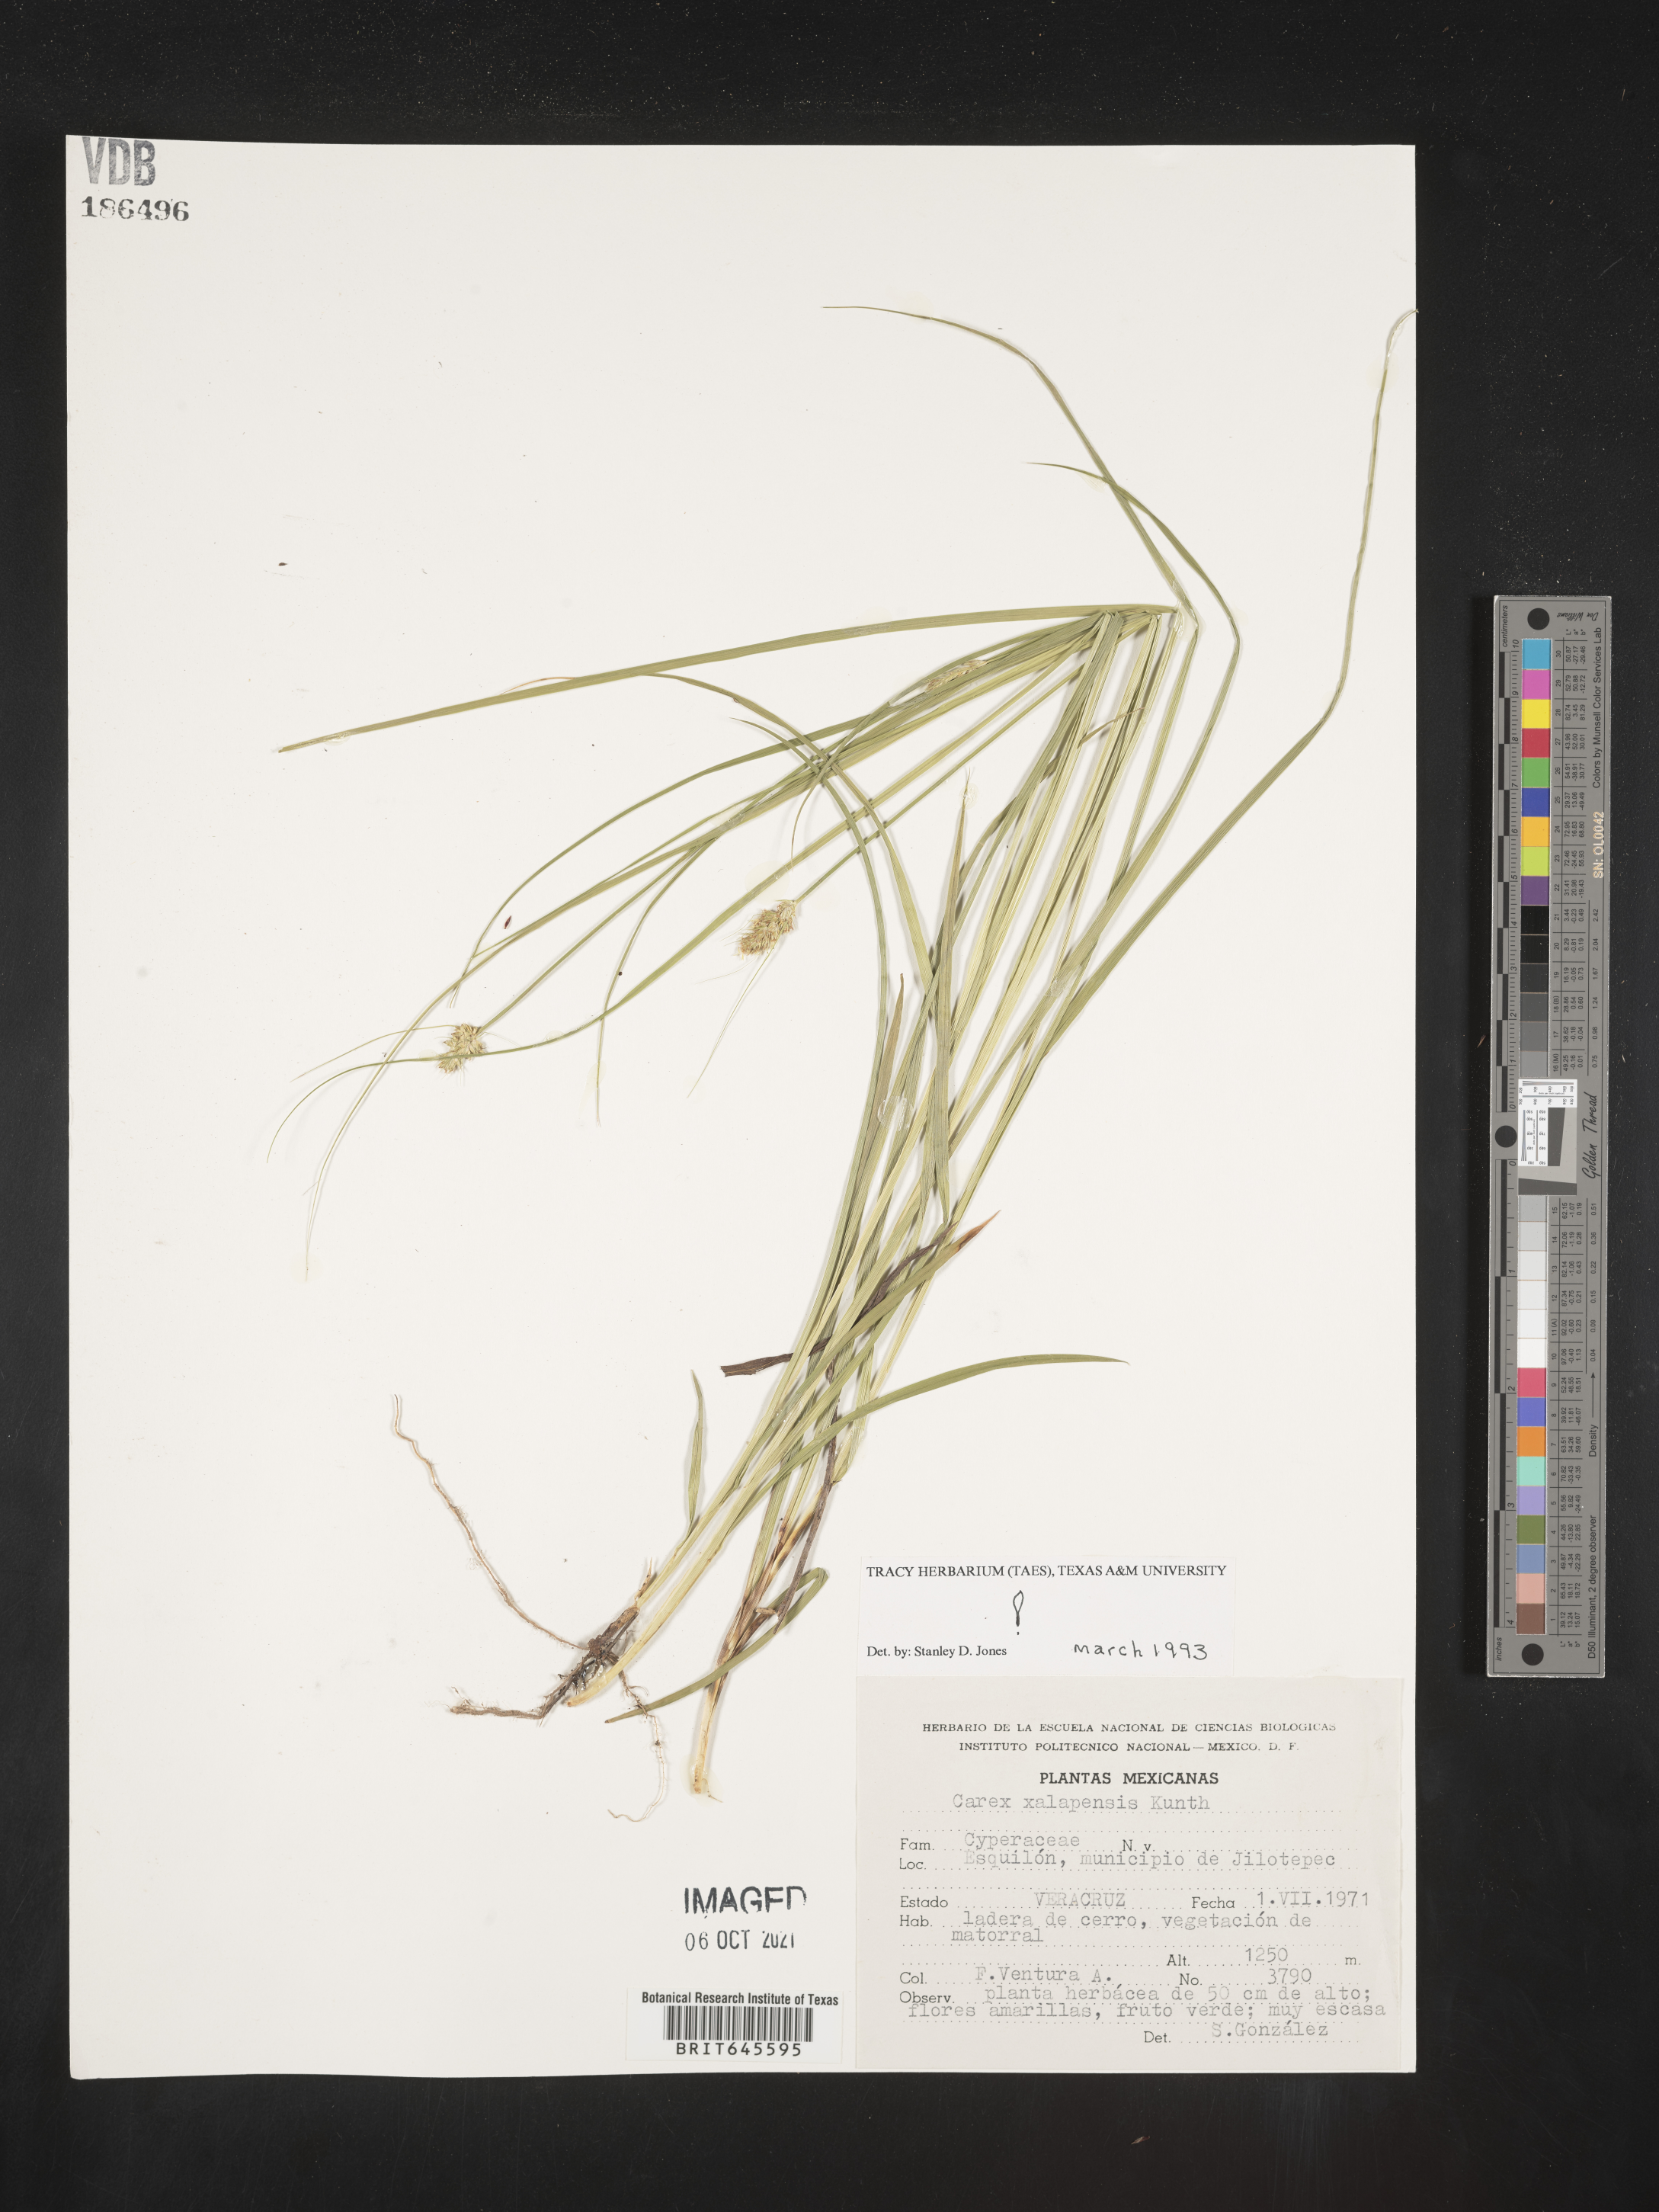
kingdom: Plantae
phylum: Tracheophyta
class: Liliopsida
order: Poales
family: Cyperaceae
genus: Carex
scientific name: Carex
